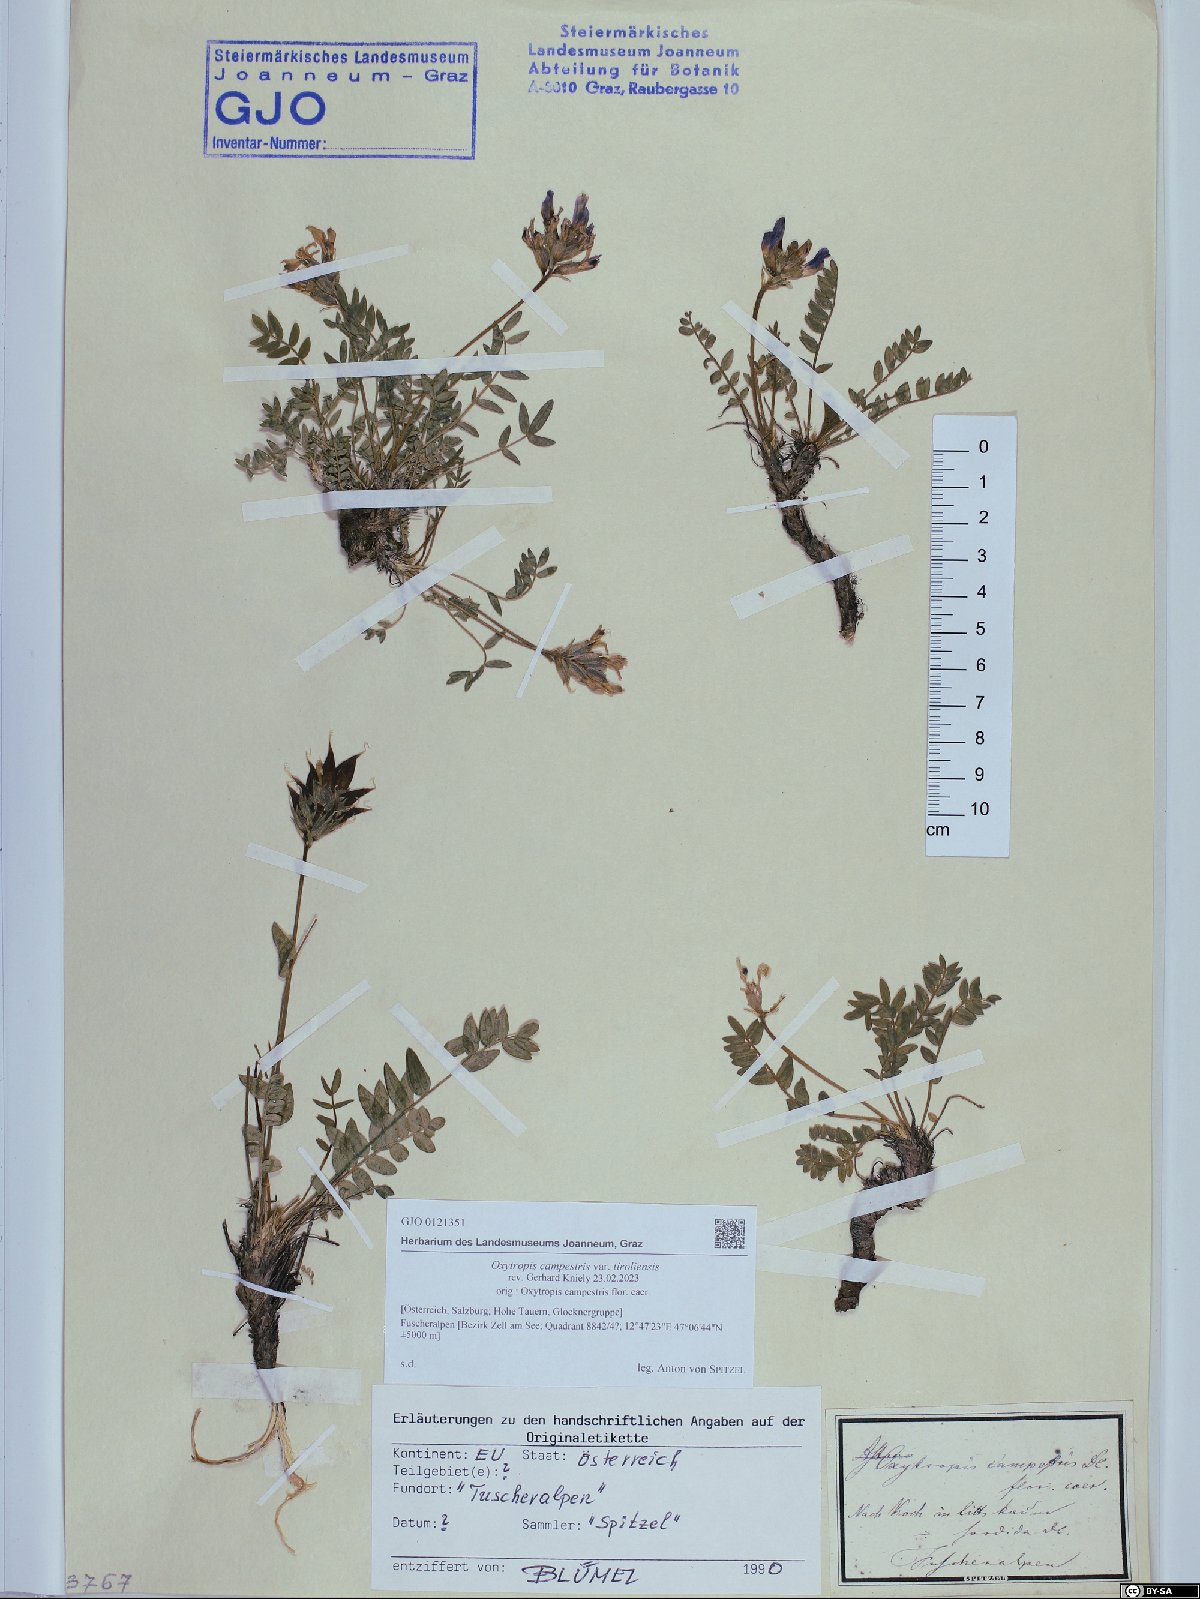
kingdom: Plantae
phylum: Tracheophyta
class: Magnoliopsida
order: Fabales
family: Fabaceae
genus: Oxytropis
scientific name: Oxytropis campestris
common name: Field locoweed
